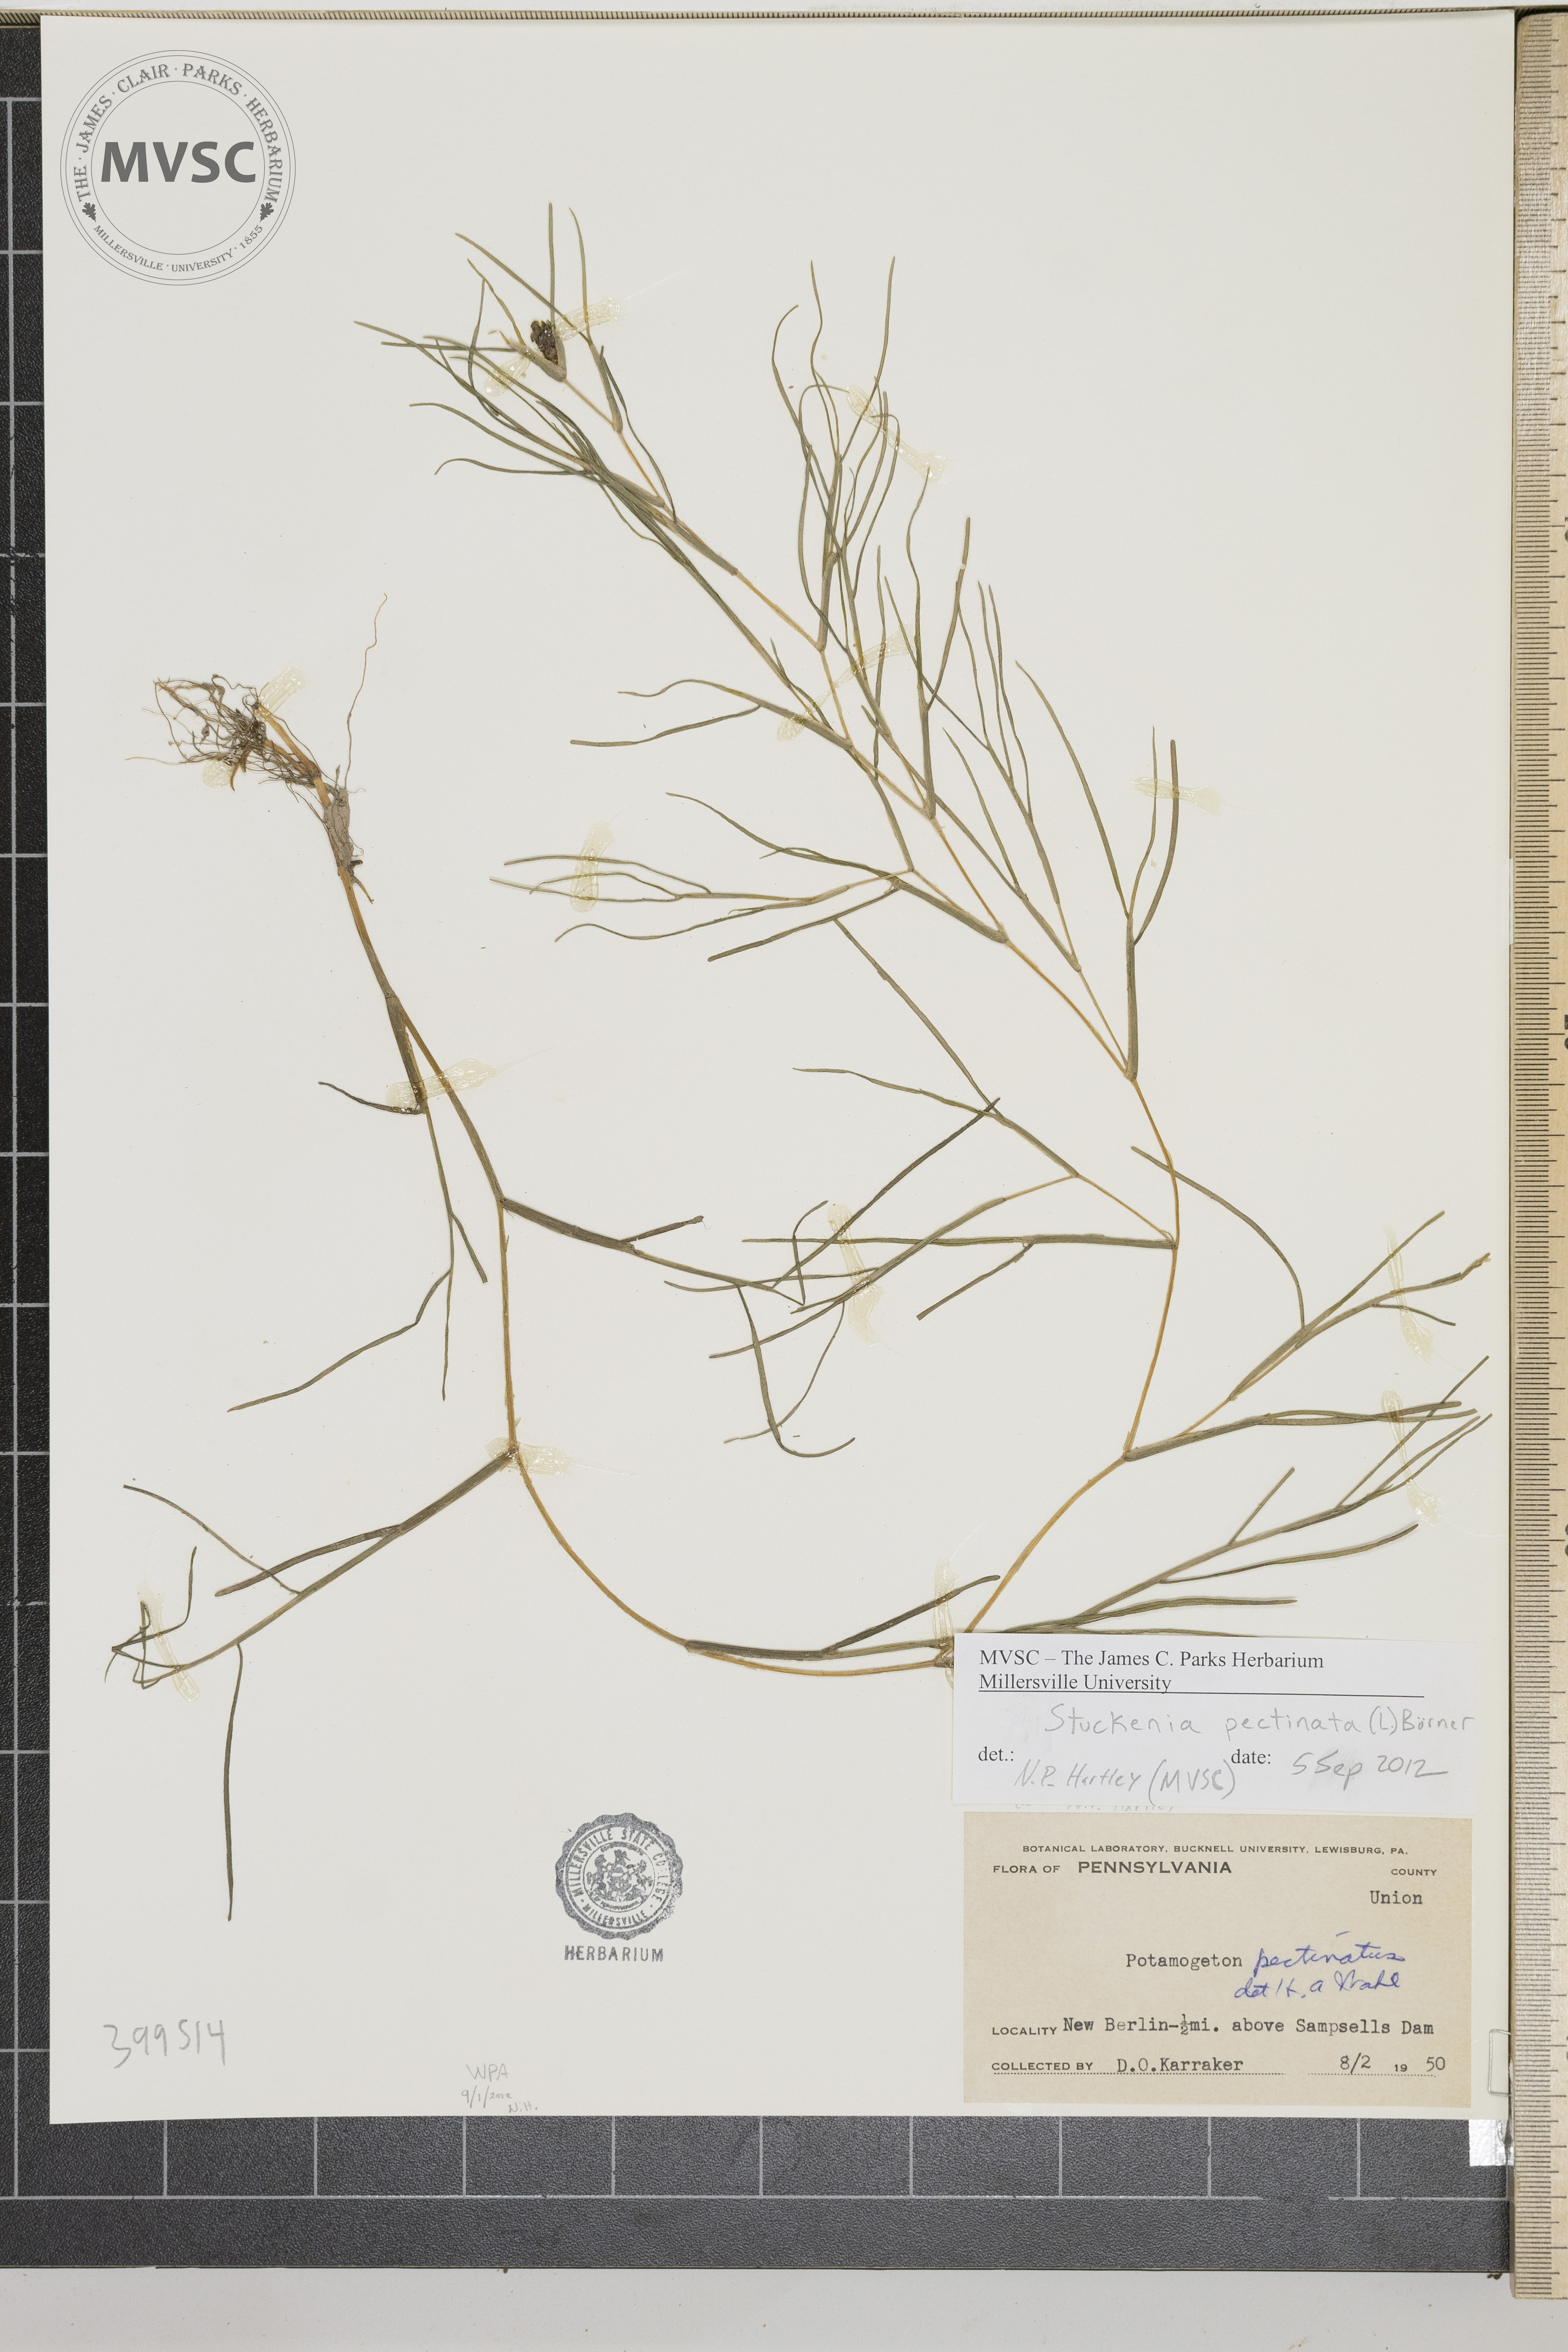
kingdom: Plantae
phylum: Tracheophyta
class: Liliopsida
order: Alismatales
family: Potamogetonaceae
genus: Stuckenia
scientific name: Stuckenia pectinata
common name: Sago Pondweed
